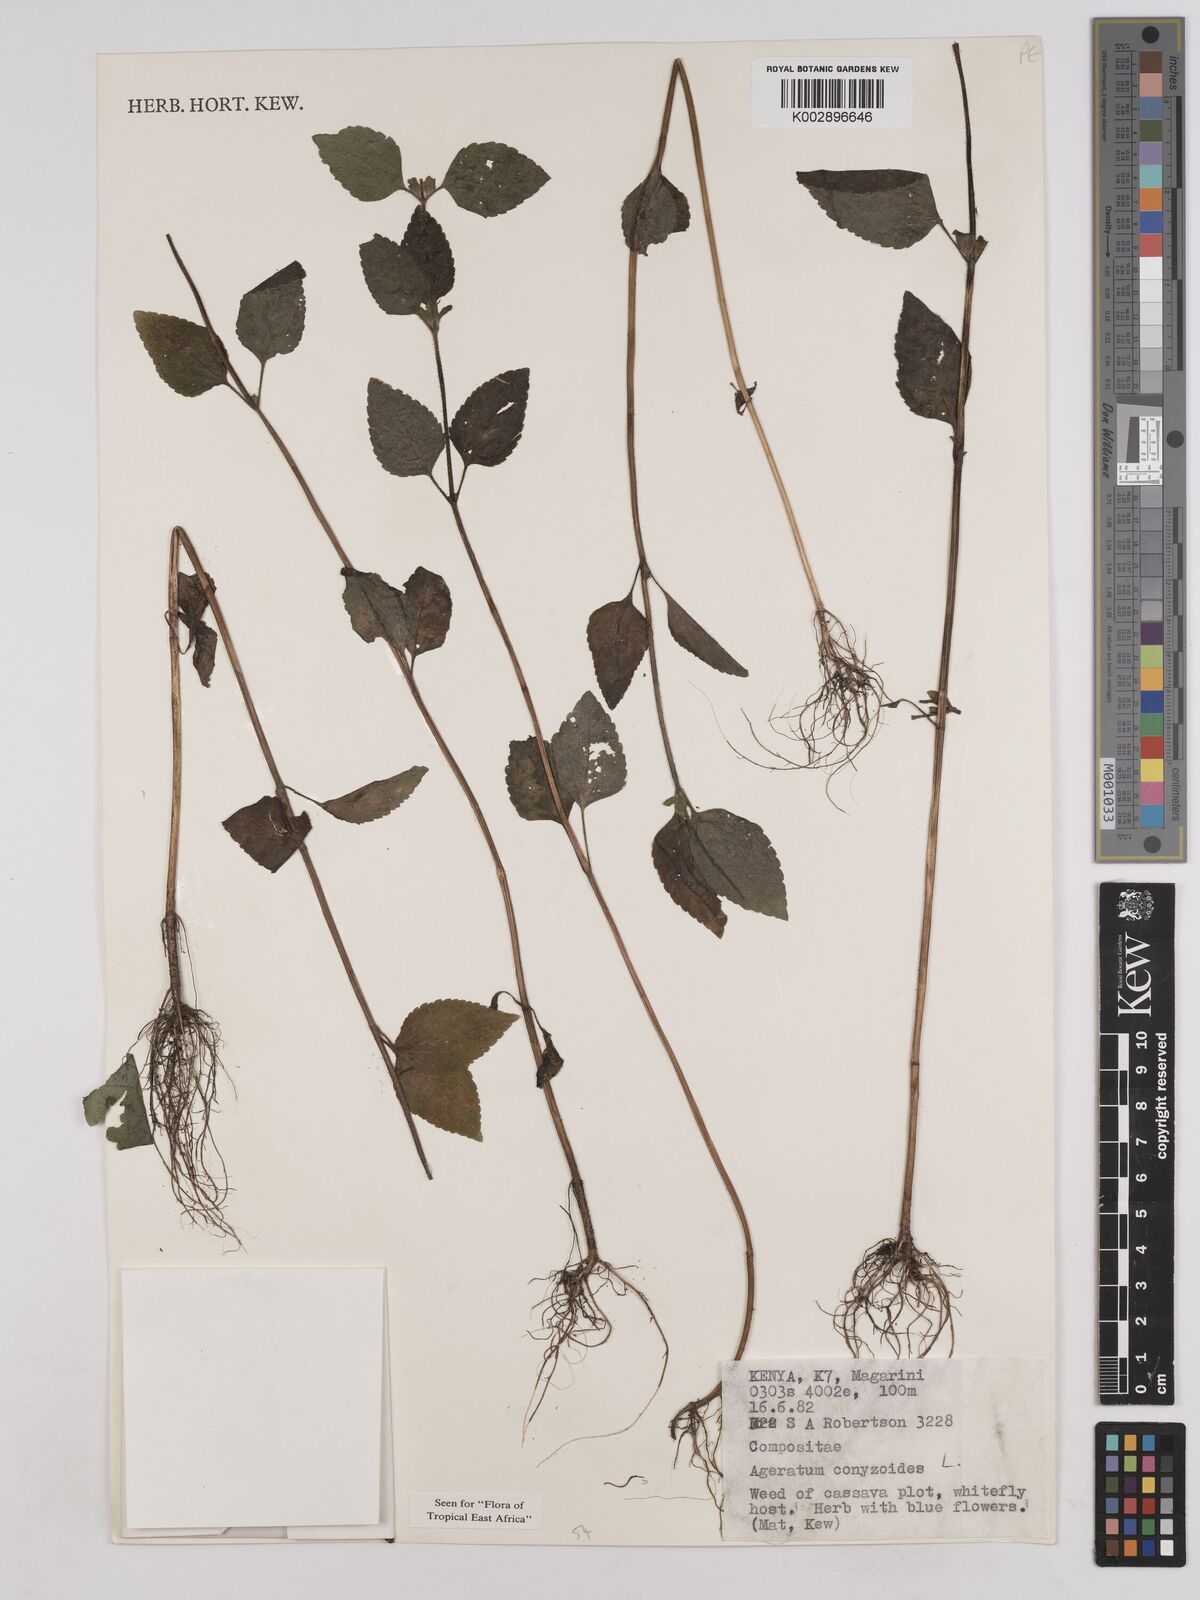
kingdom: Plantae
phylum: Tracheophyta
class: Magnoliopsida
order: Asterales
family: Asteraceae
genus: Ageratum
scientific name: Ageratum conyzoides
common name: Tropical whiteweed
